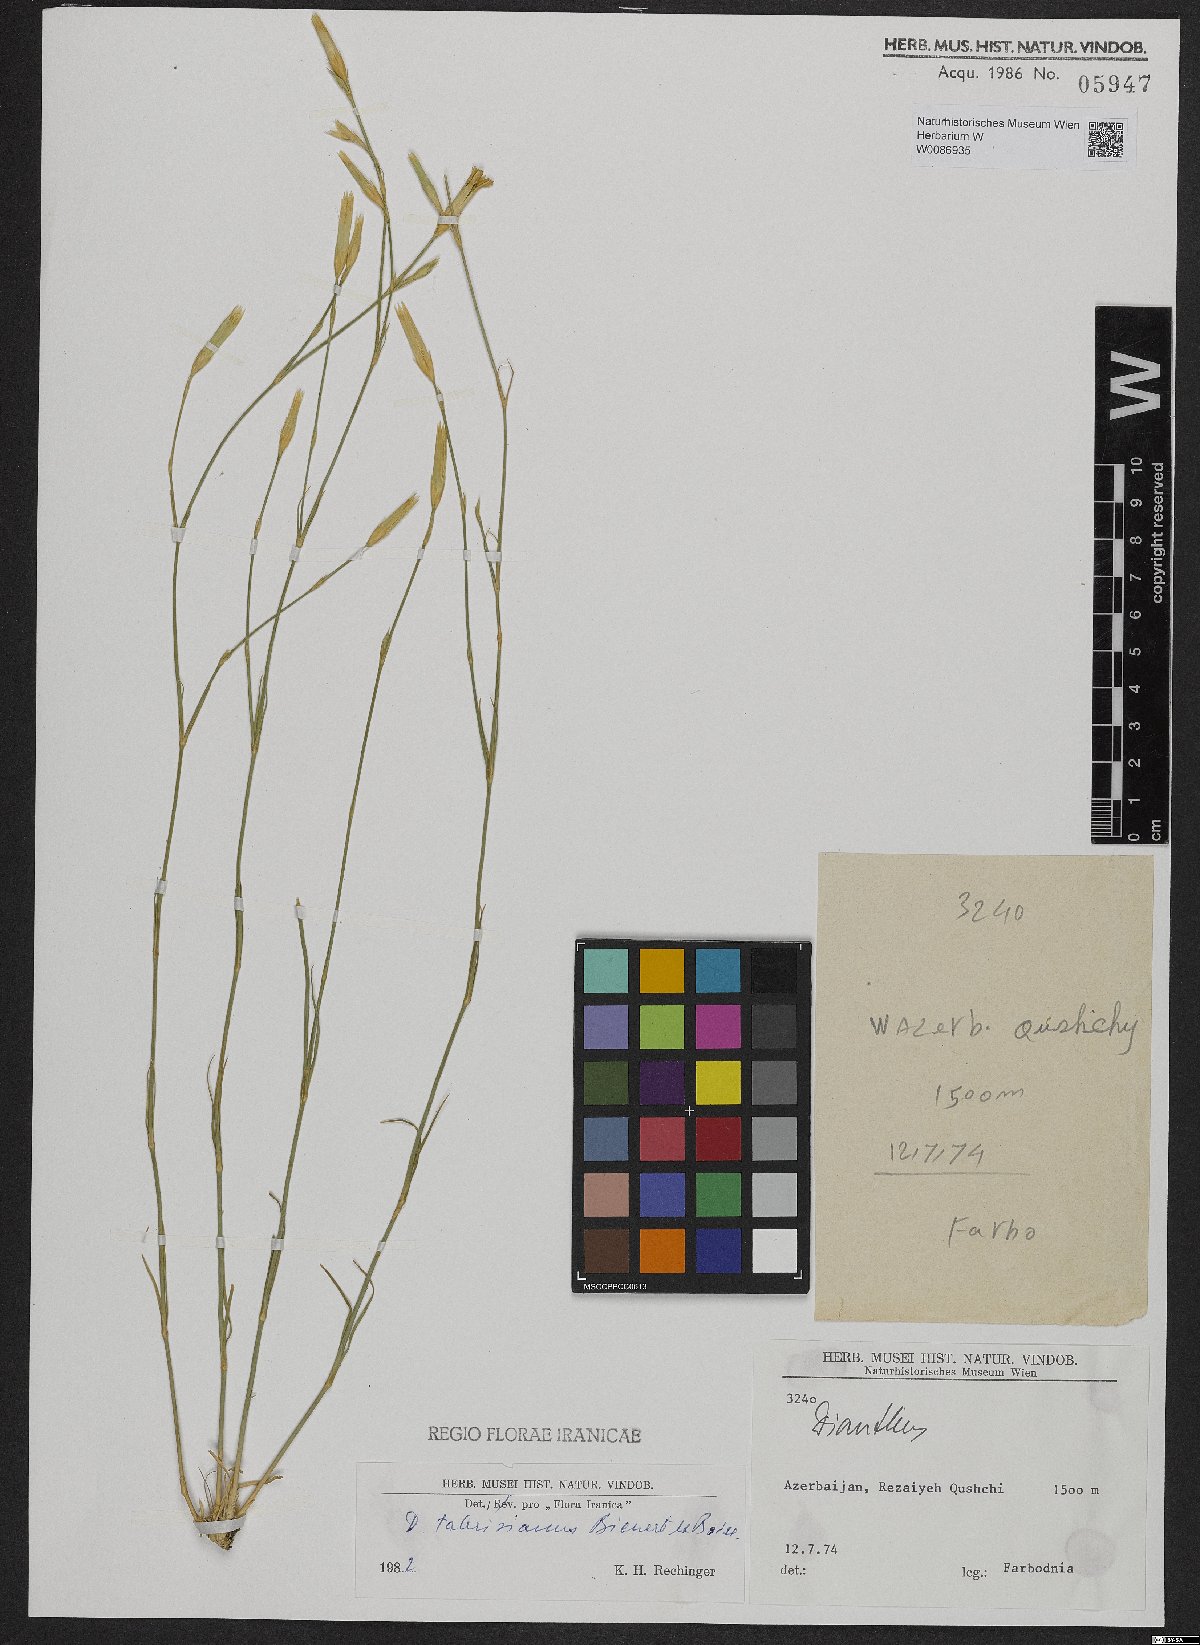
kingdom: Plantae
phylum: Tracheophyta
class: Magnoliopsida
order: Caryophyllales
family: Caryophyllaceae
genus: Dianthus
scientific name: Dianthus tabrisianus
